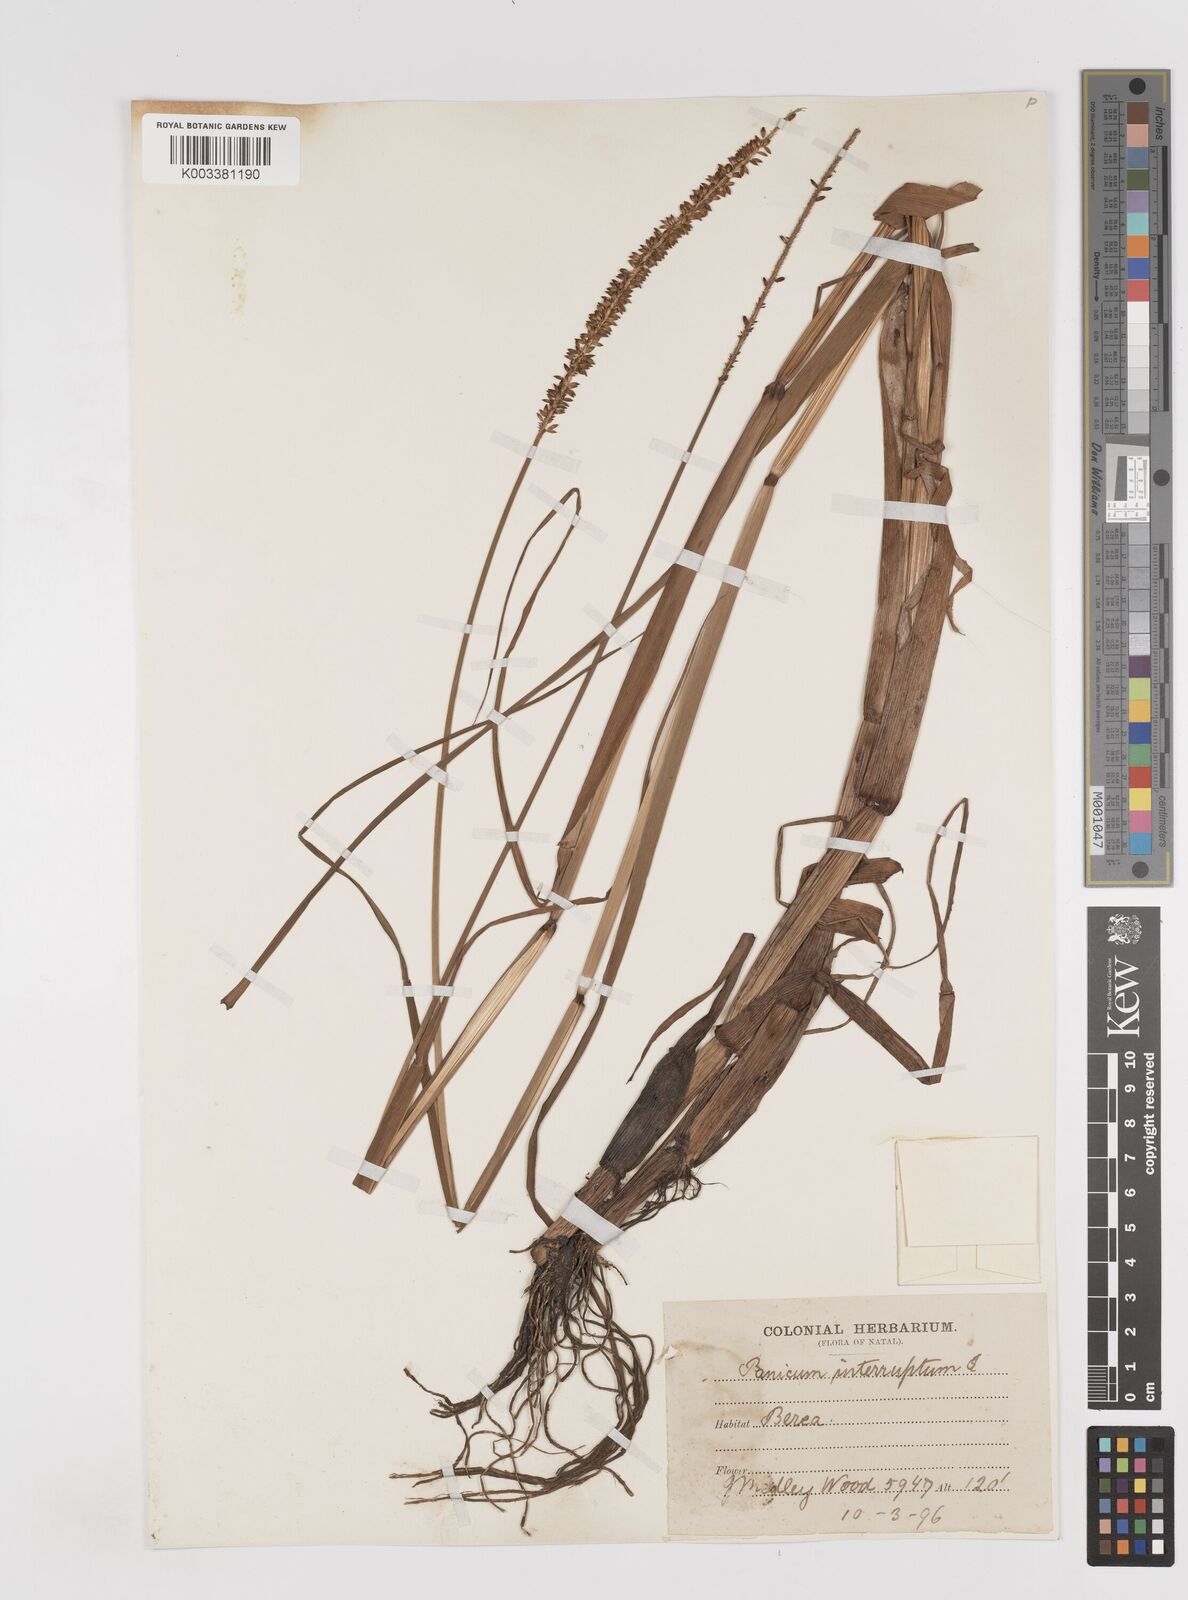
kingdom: Plantae
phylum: Tracheophyta
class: Liliopsida
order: Poales
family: Poaceae
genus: Sacciolepis
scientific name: Sacciolepis africana
